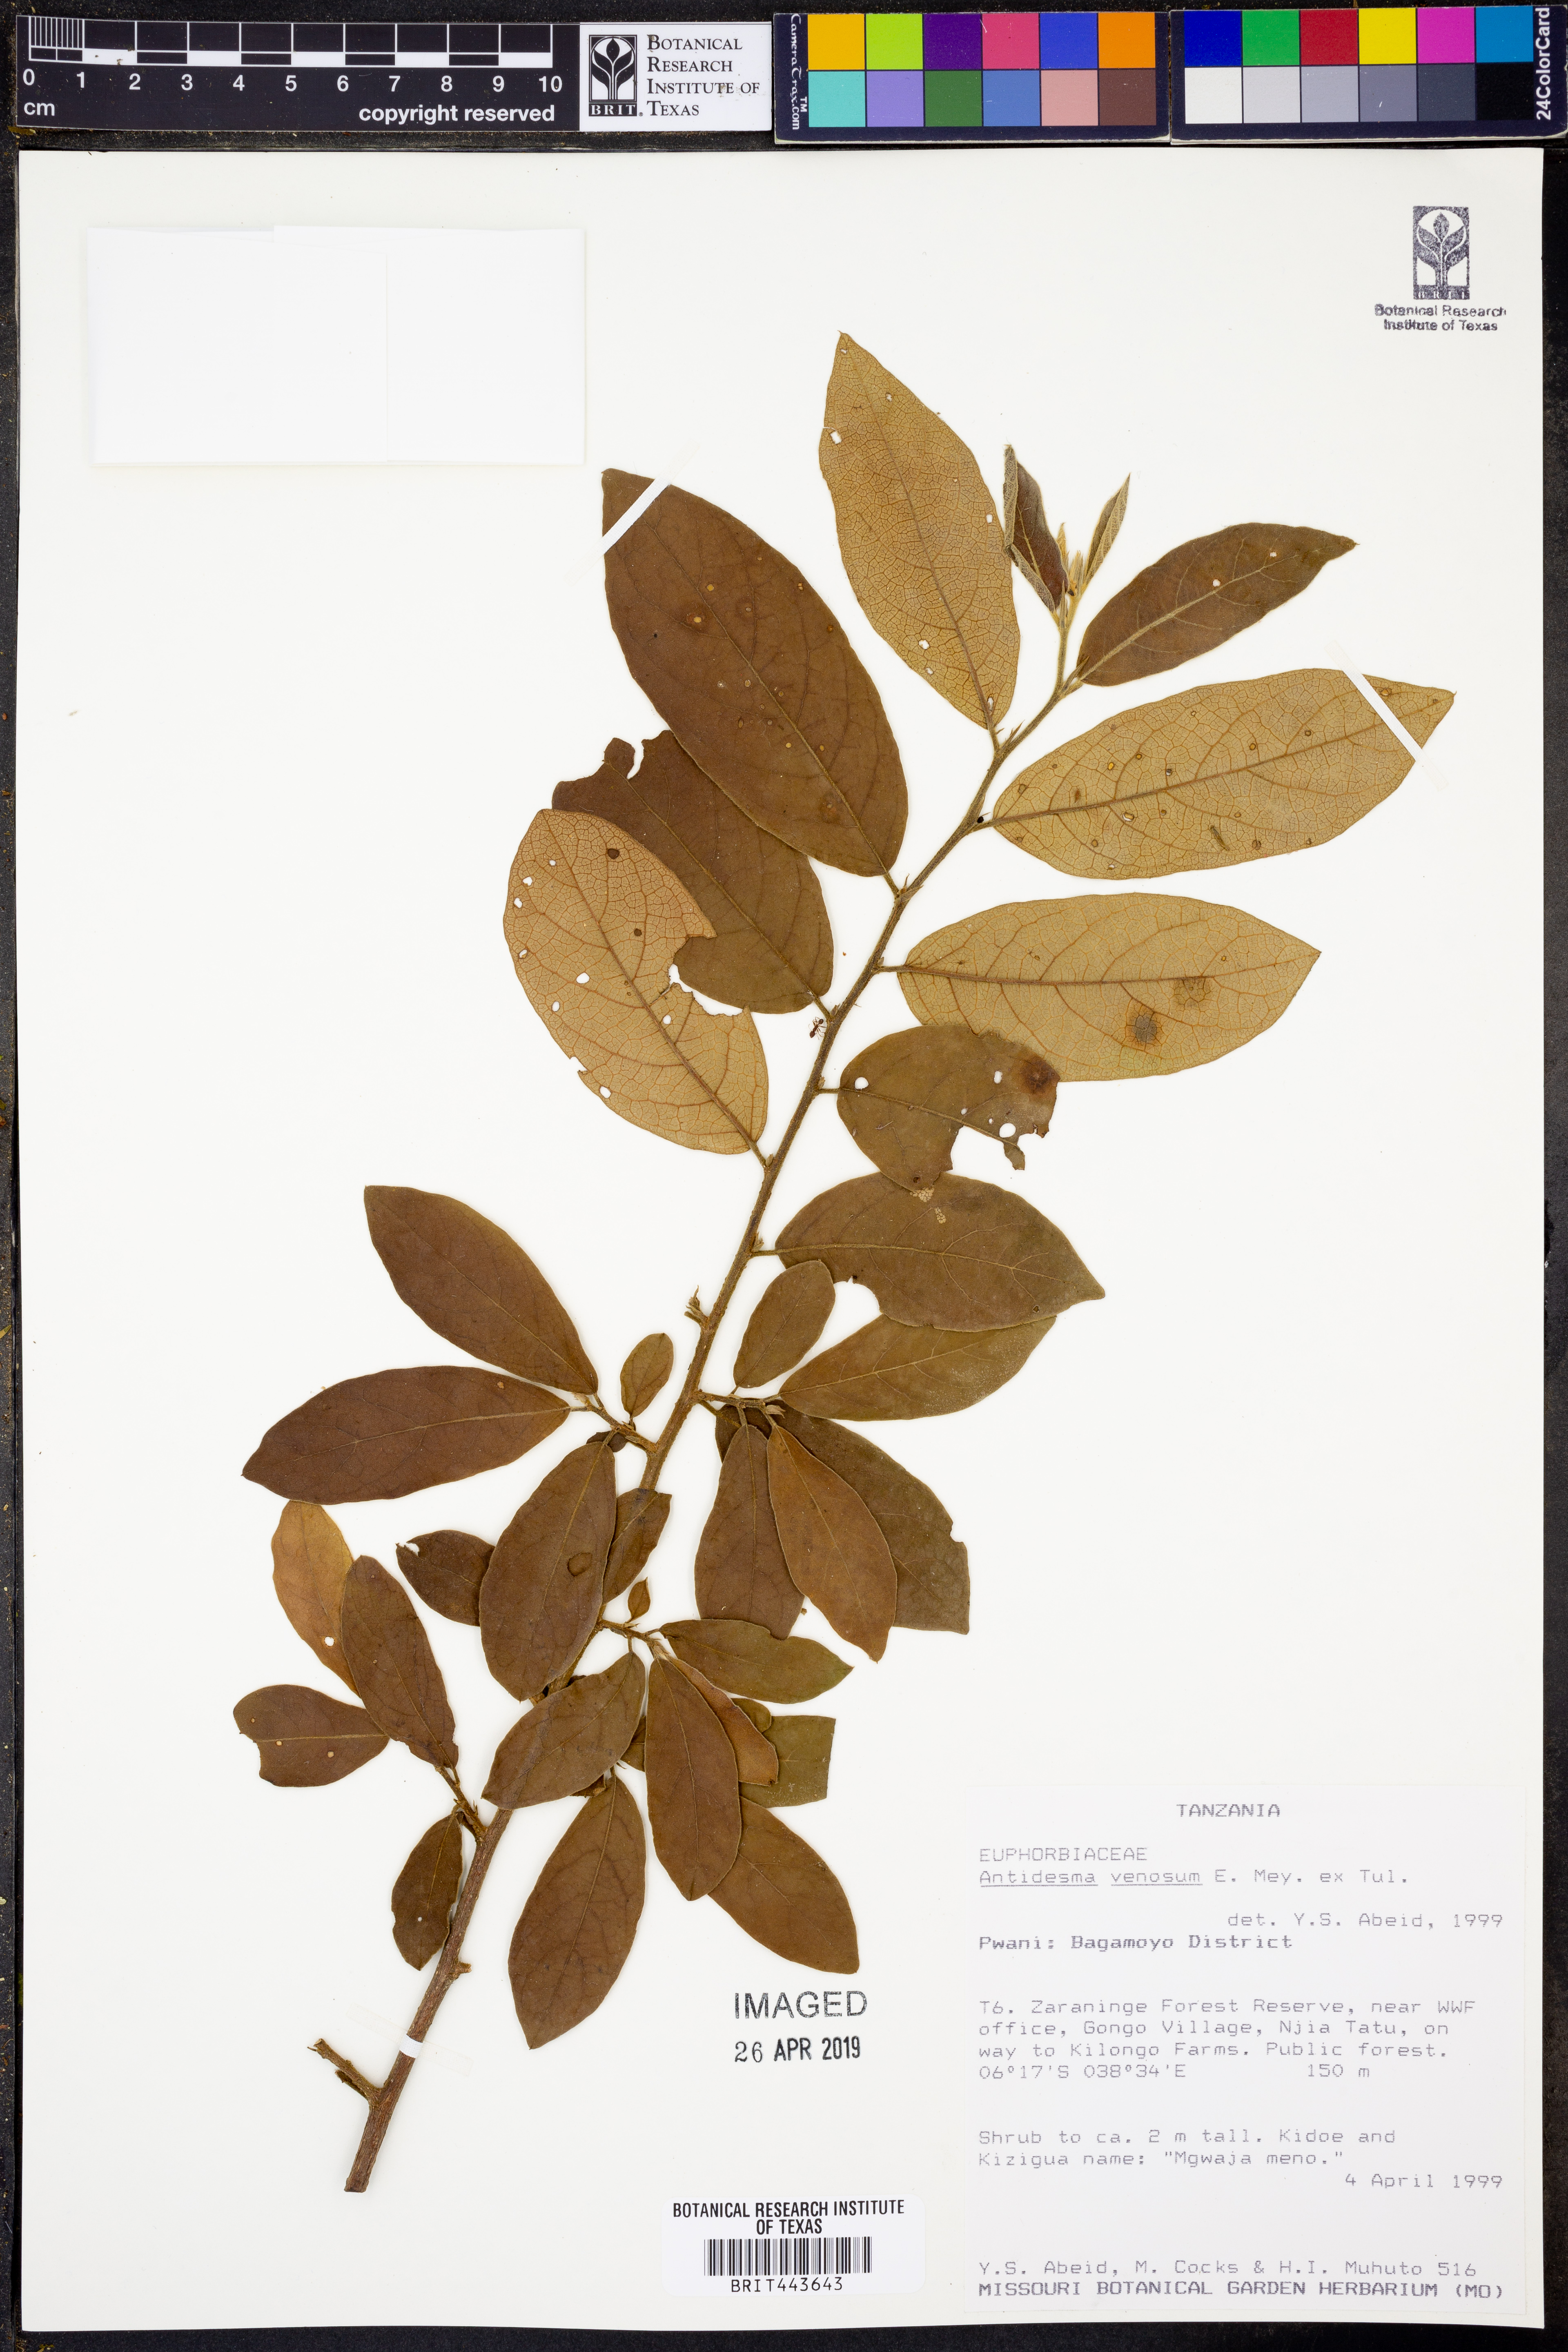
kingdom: Plantae
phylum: Tracheophyta
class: Magnoliopsida
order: Malpighiales
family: Phyllanthaceae
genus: Antidesma
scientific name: Antidesma venosum
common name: Tassel-berry
